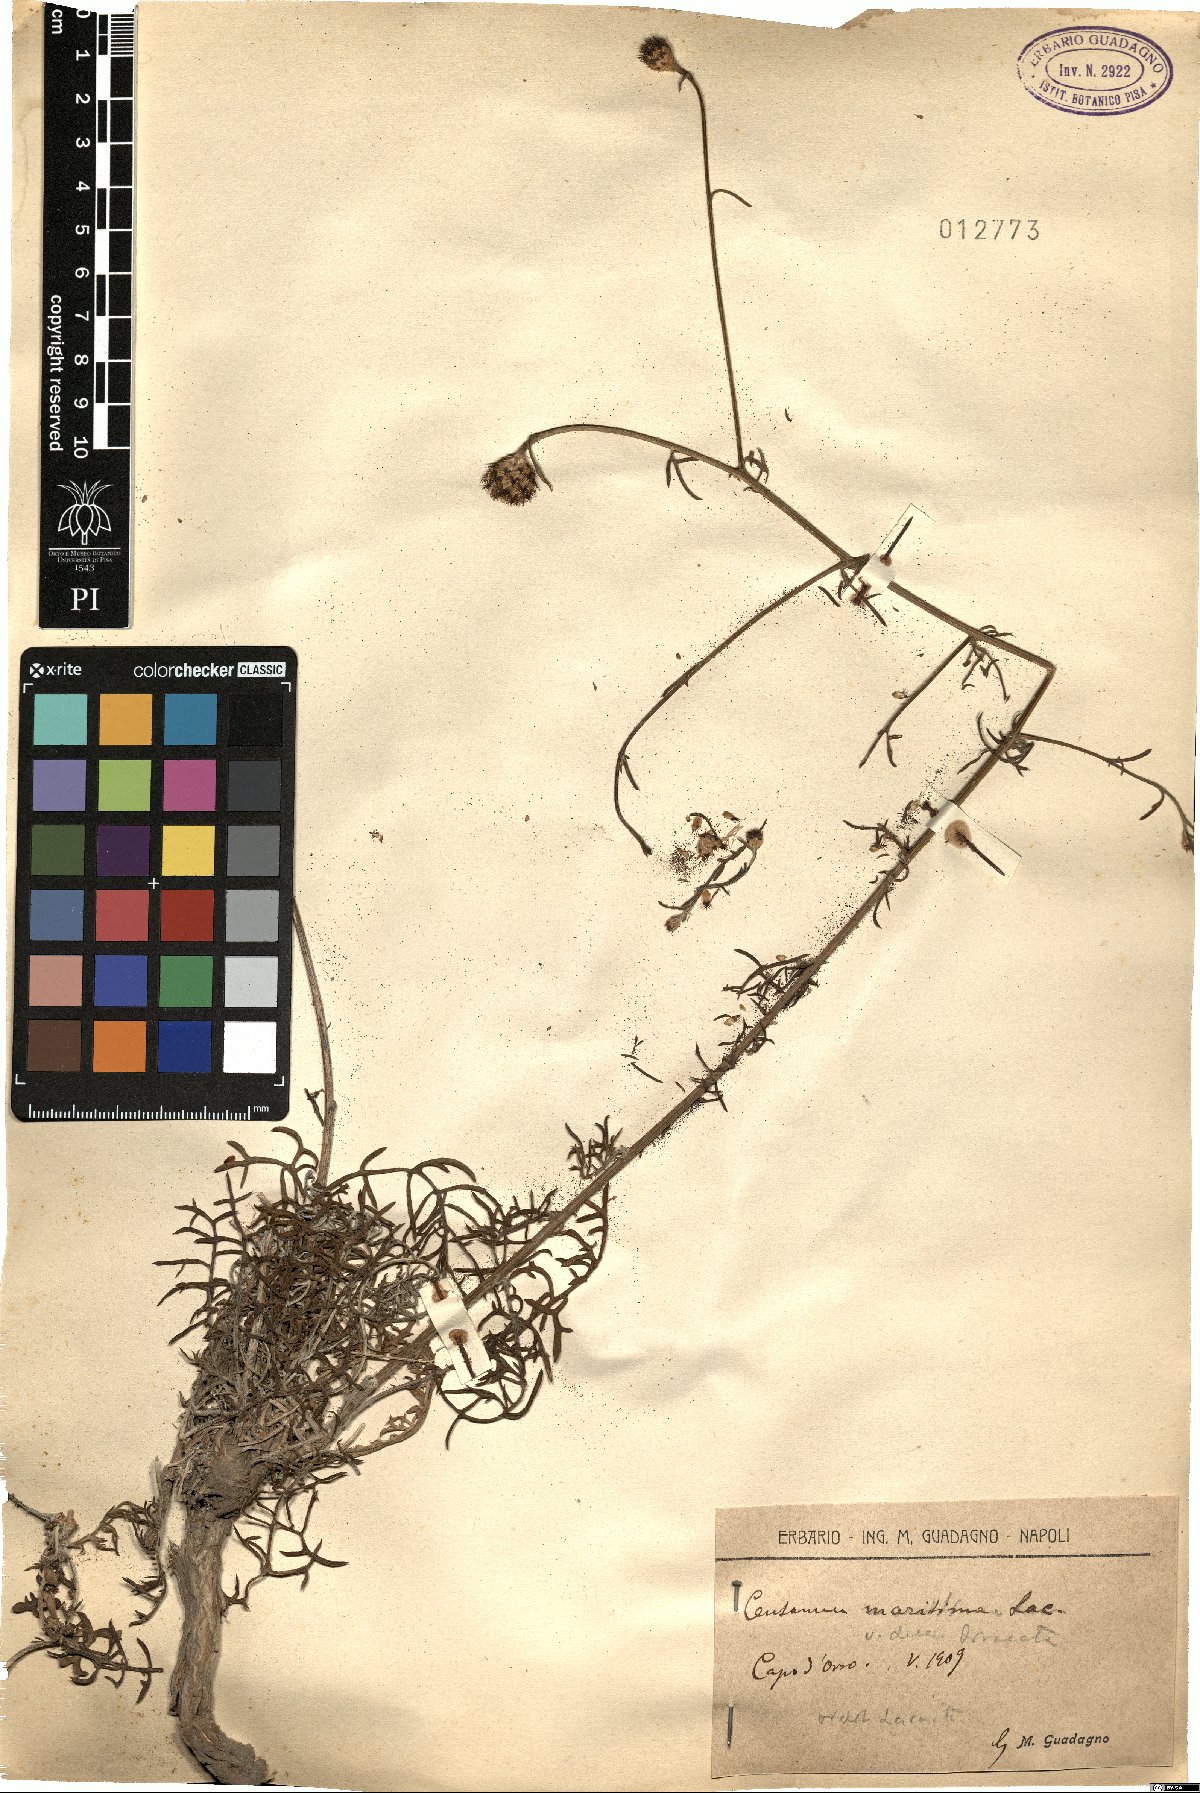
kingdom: Plantae
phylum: Tracheophyta
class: Magnoliopsida
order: Asterales
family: Asteraceae
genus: Centaurea
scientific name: Centaurea tenorei
